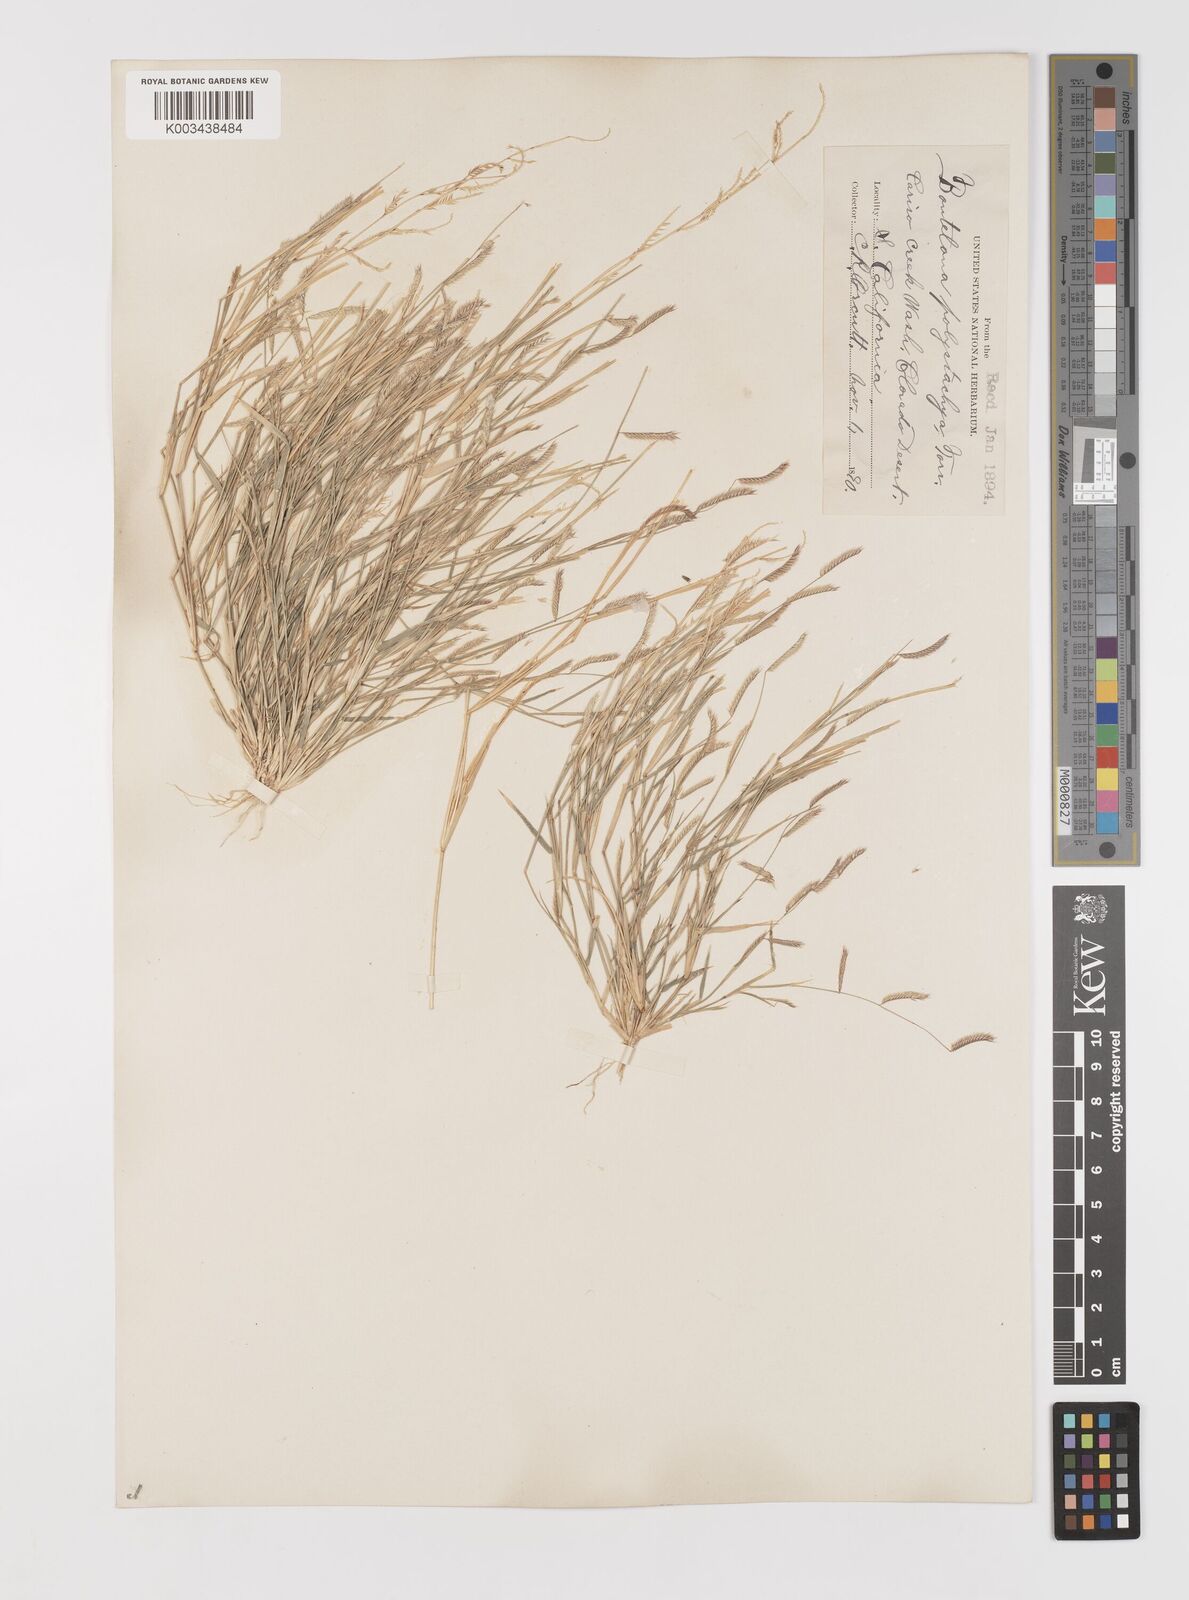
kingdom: Plantae
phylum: Tracheophyta
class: Liliopsida
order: Poales
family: Poaceae
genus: Bouteloua
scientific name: Bouteloua
